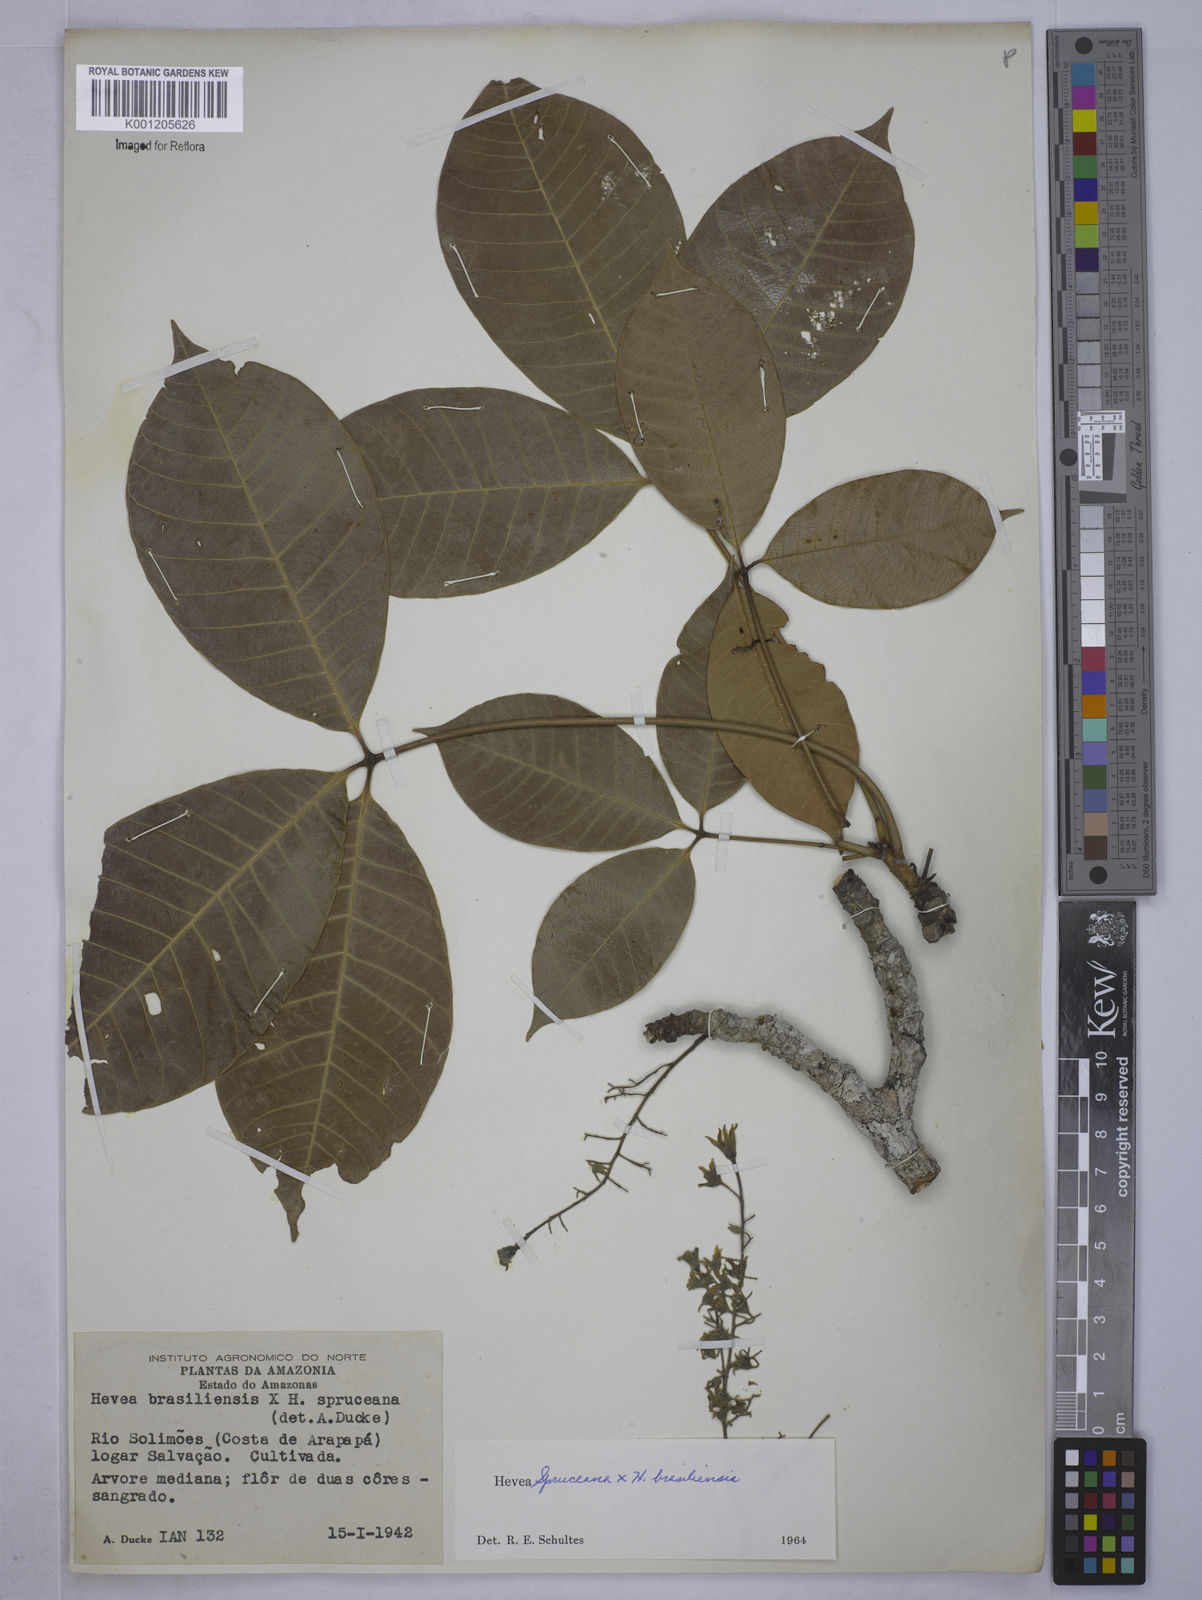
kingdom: Plantae
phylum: Tracheophyta
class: Magnoliopsida
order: Malpighiales
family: Euphorbiaceae
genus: Hevea
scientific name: Hevea
